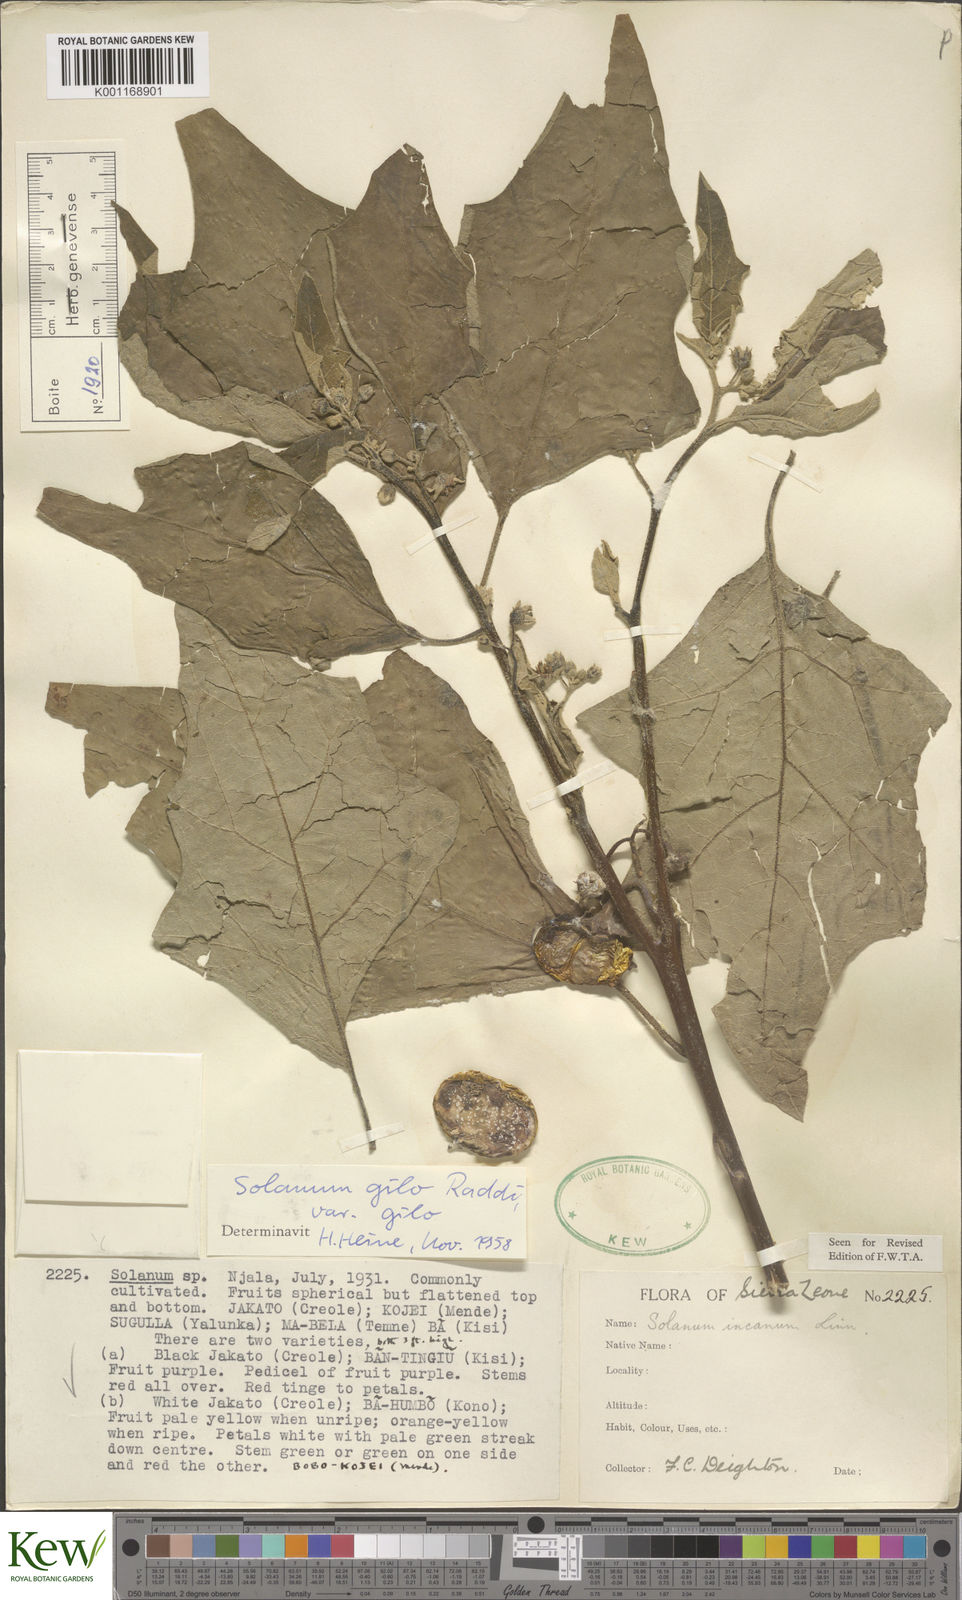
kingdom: Plantae
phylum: Tracheophyta
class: Magnoliopsida
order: Solanales
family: Solanaceae
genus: Solanum
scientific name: Solanum aethiopicum
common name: Gilo
